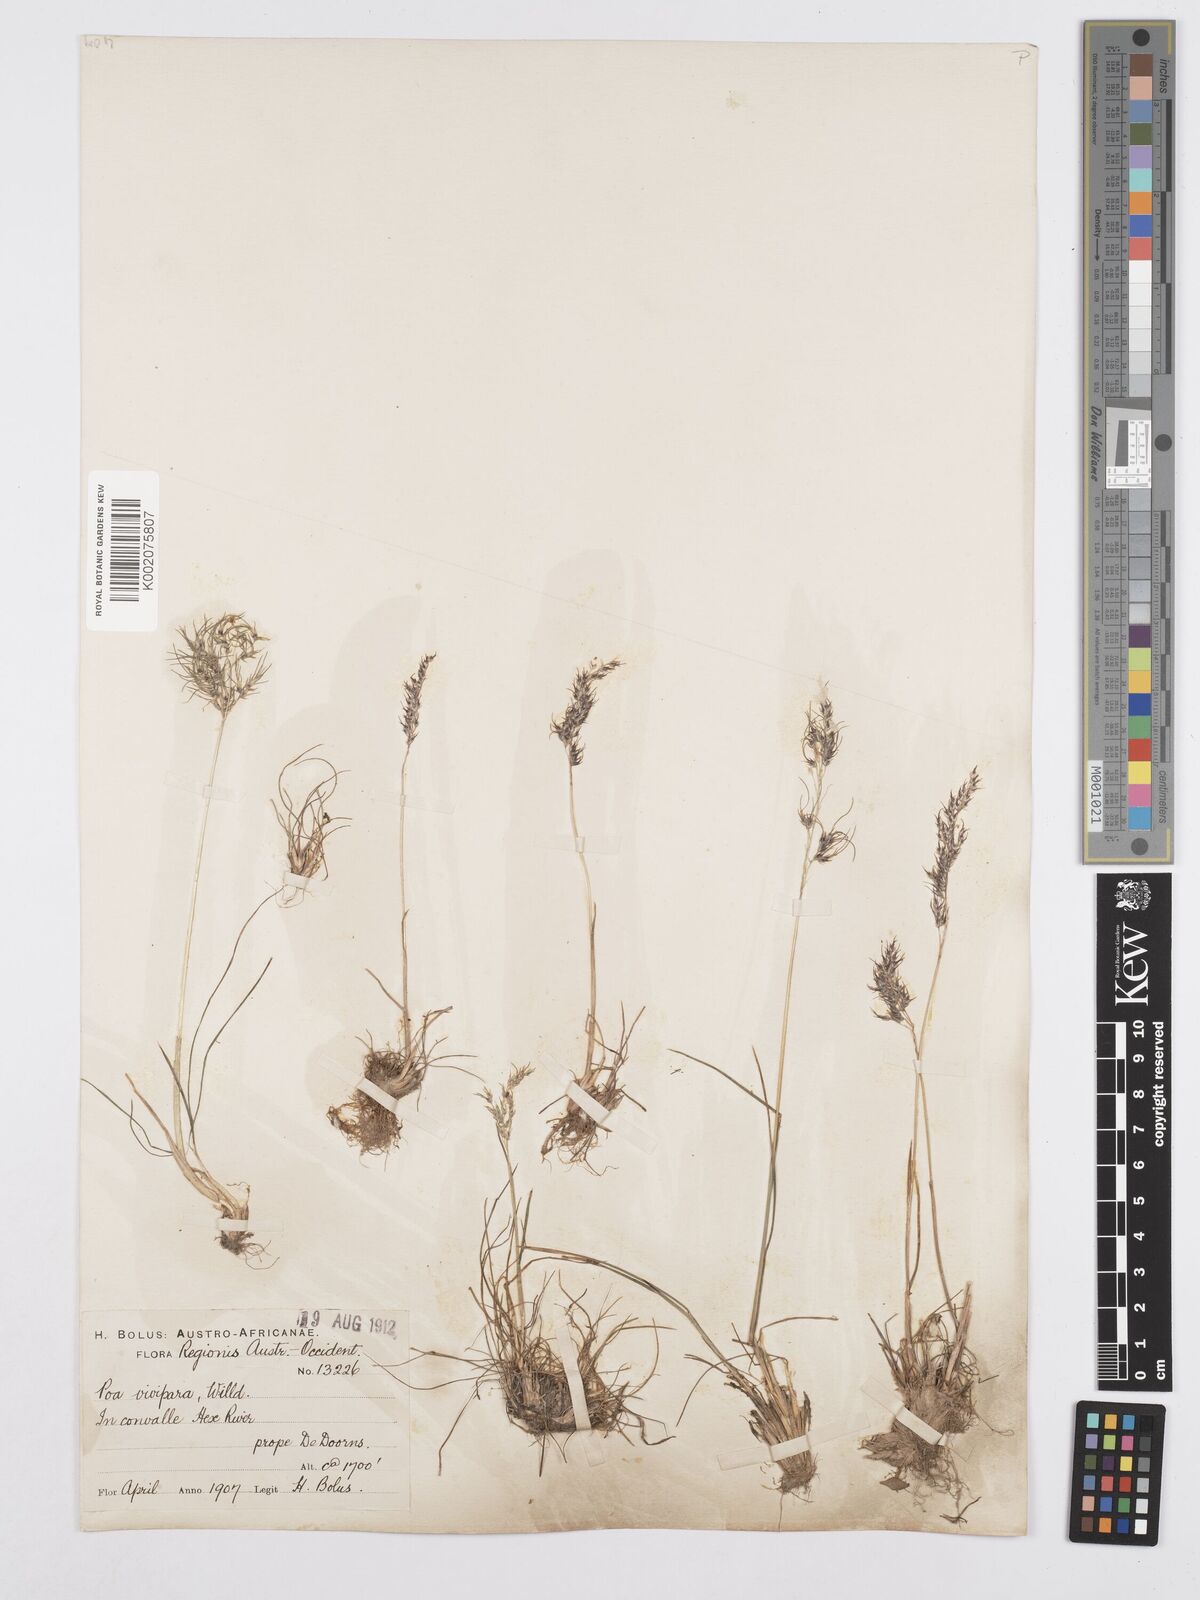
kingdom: Plantae
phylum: Tracheophyta
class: Liliopsida
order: Poales
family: Poaceae
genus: Poa
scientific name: Poa bulbosa
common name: Bulbous bluegrass
